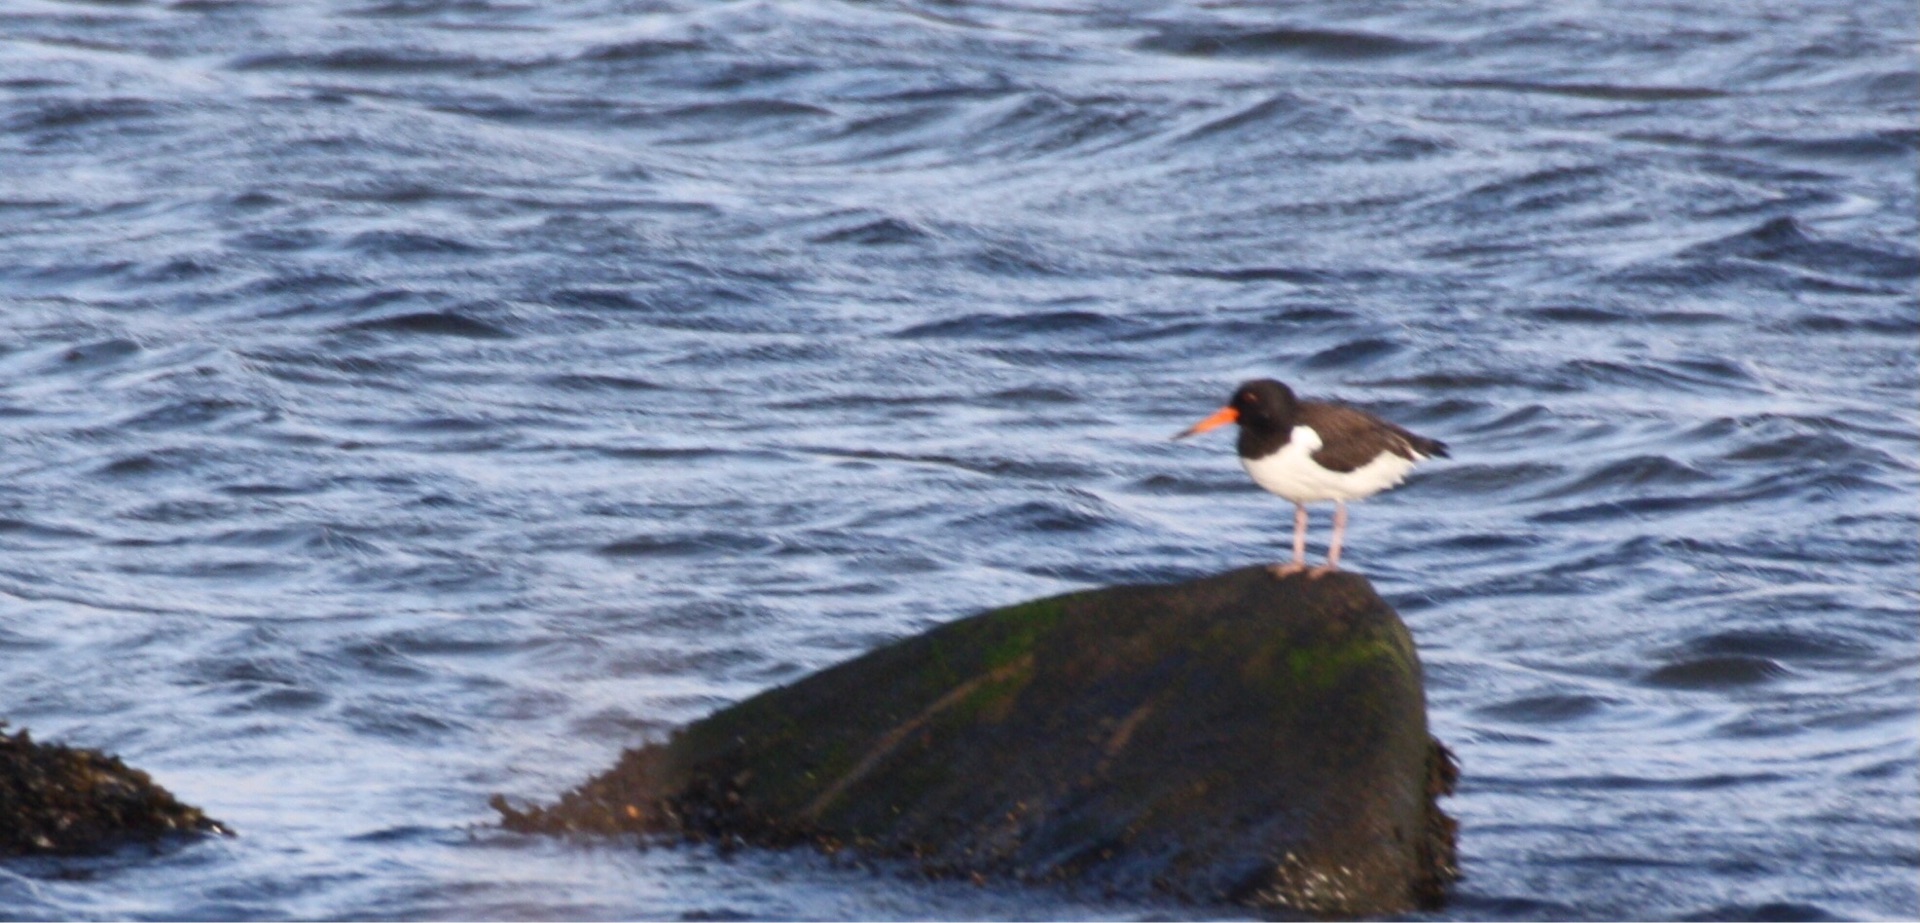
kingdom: Animalia
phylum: Chordata
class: Aves
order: Charadriiformes
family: Haematopodidae
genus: Haematopus
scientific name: Haematopus ostralegus
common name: Strandskade
